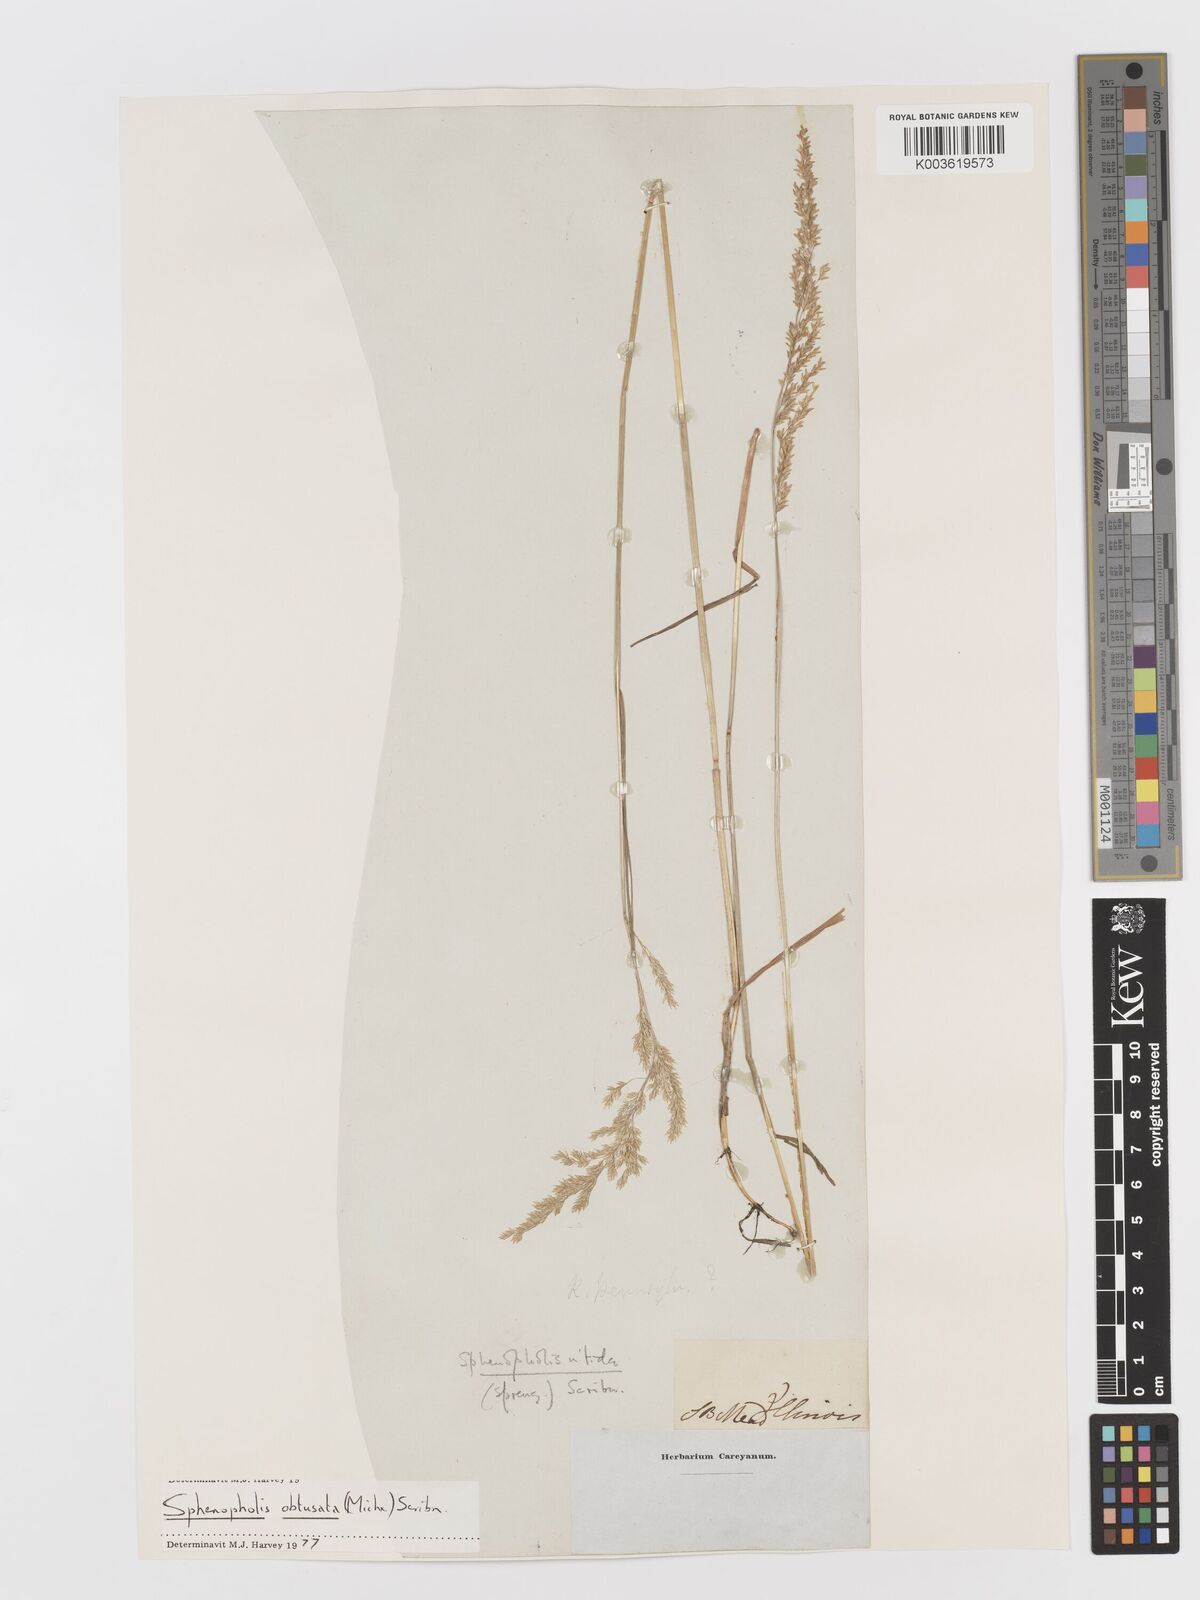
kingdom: Plantae
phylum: Tracheophyta
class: Liliopsida
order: Poales
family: Poaceae
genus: Sphenopholis
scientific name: Sphenopholis obtusata
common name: Prairie grass
